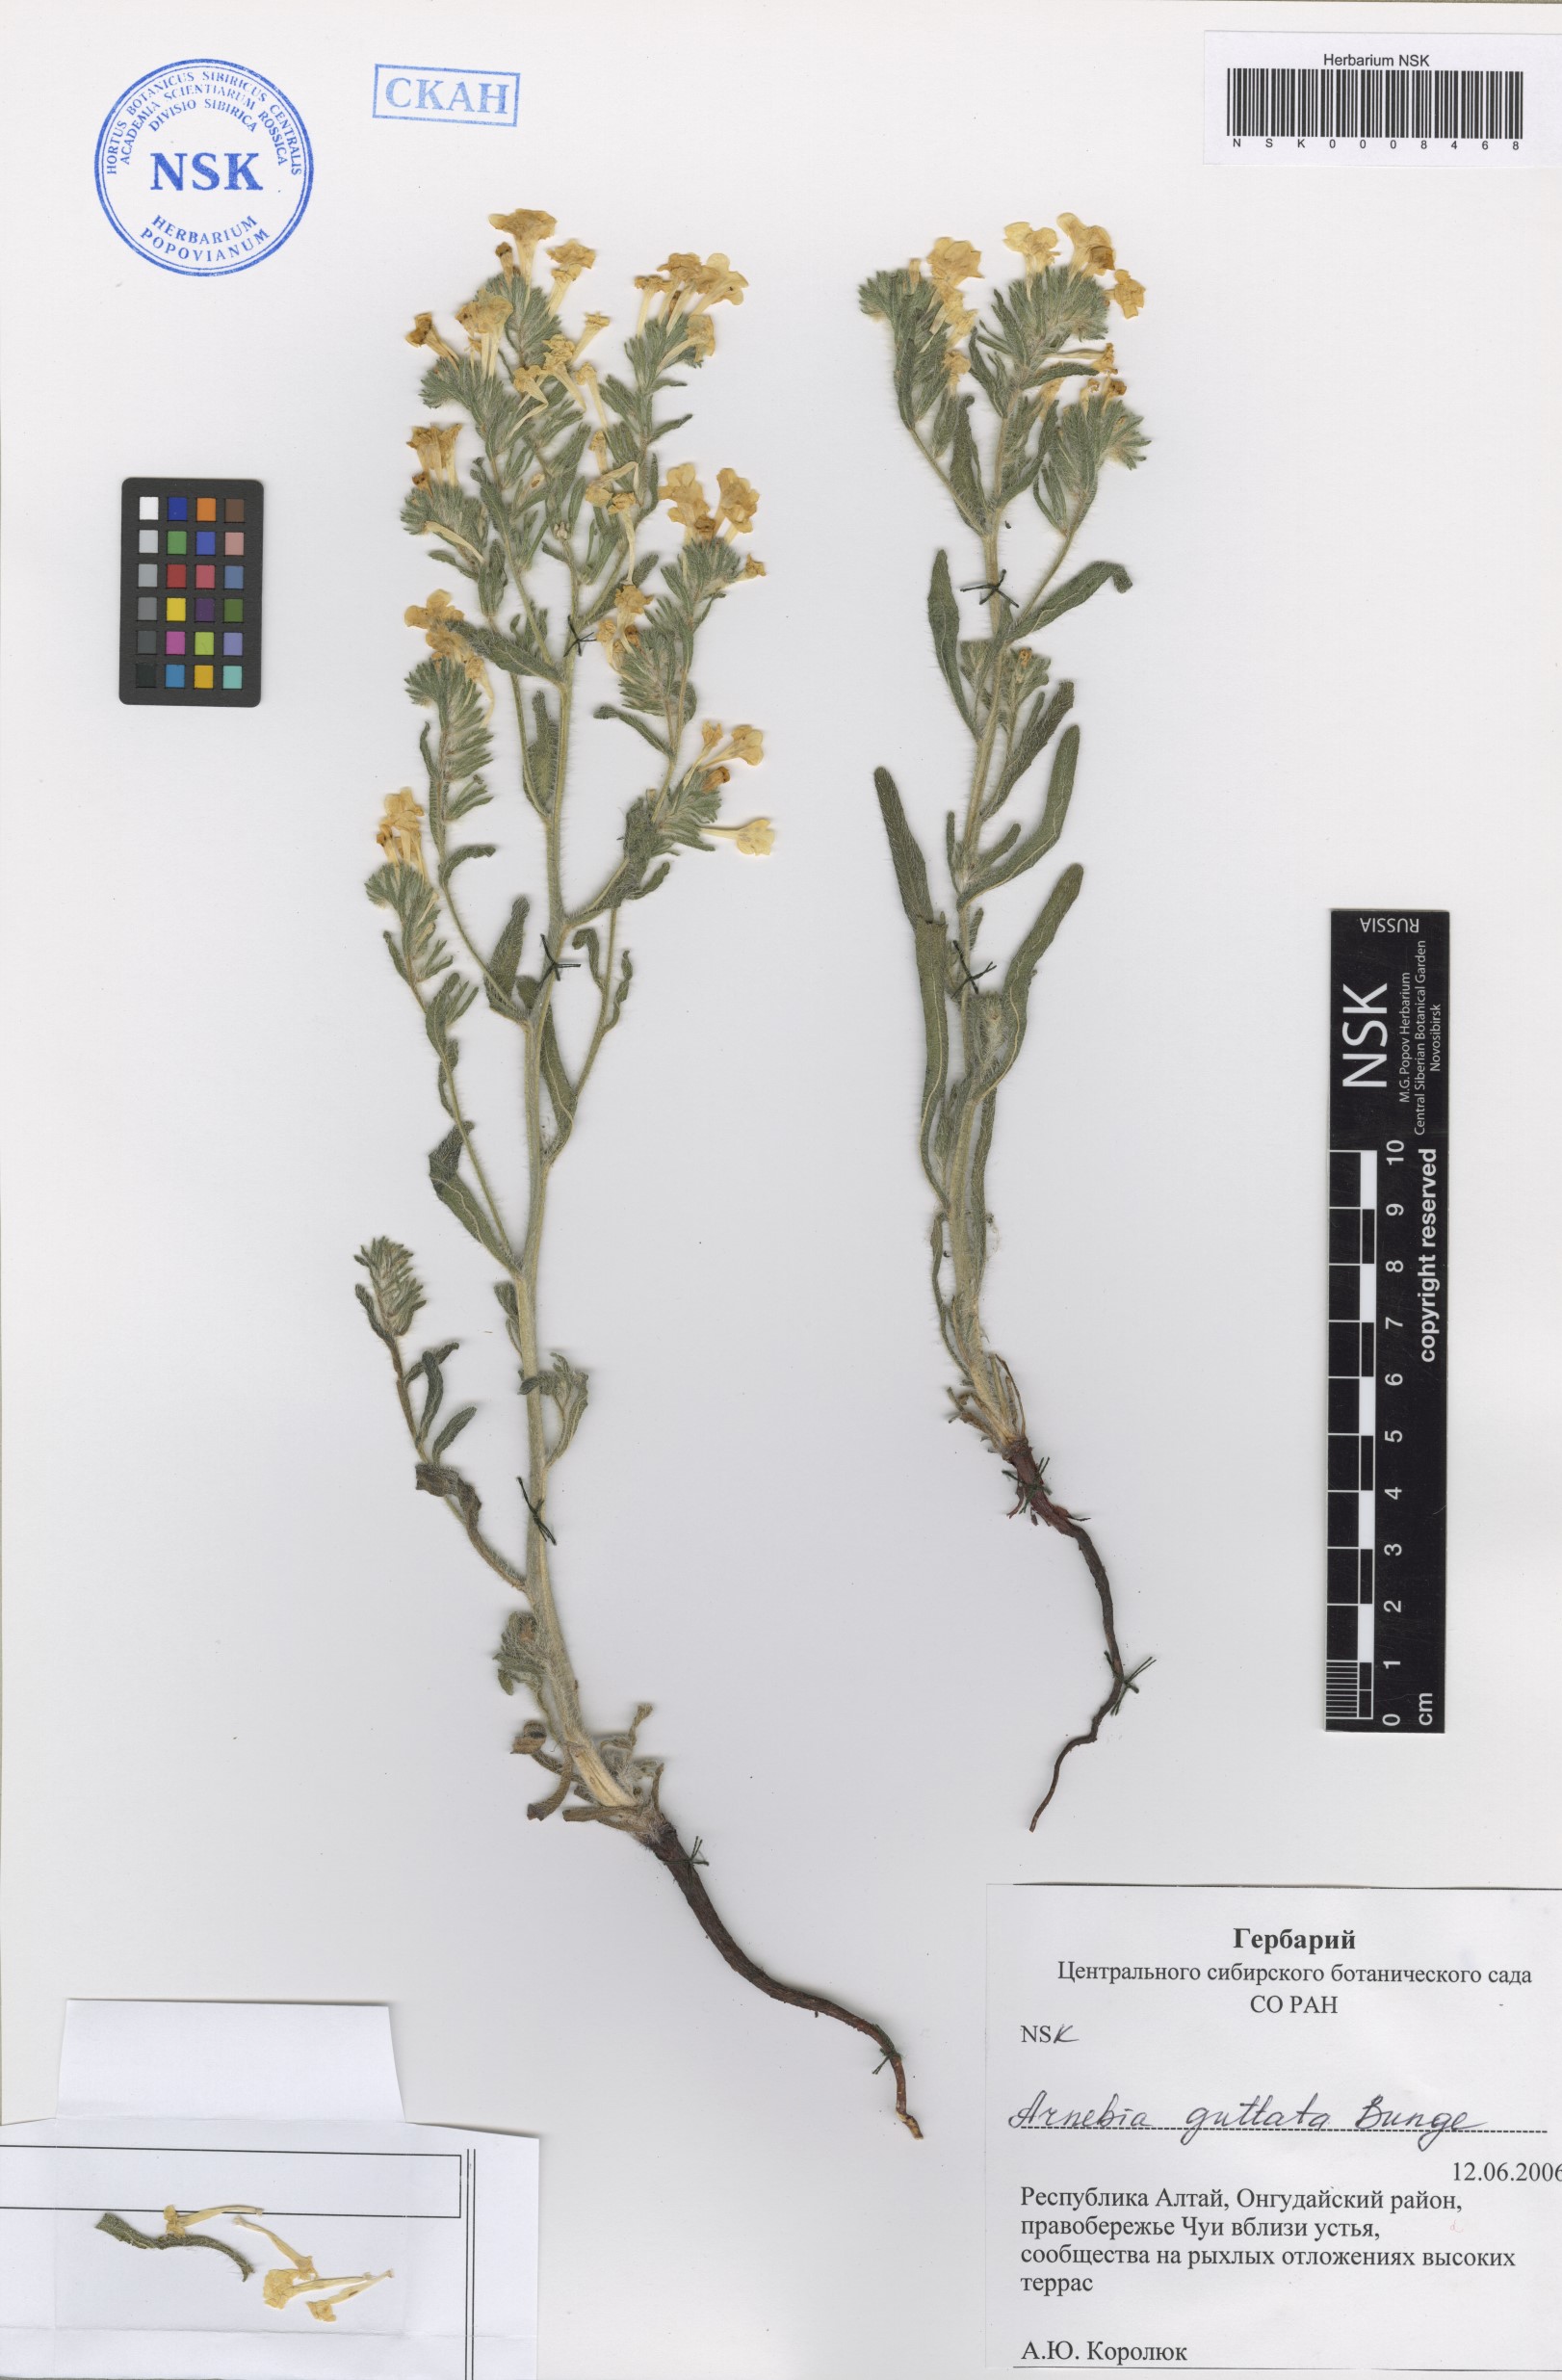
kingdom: Plantae
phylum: Tracheophyta
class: Magnoliopsida
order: Boraginales
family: Boraginaceae
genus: Arnebia
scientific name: Arnebia guttata
